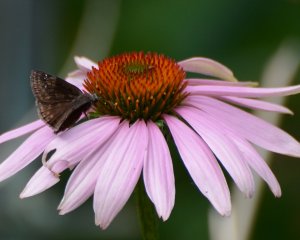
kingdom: Animalia
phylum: Arthropoda
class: Insecta
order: Lepidoptera
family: Hesperiidae
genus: Gesta
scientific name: Gesta
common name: Wild Indigo Duskywing
